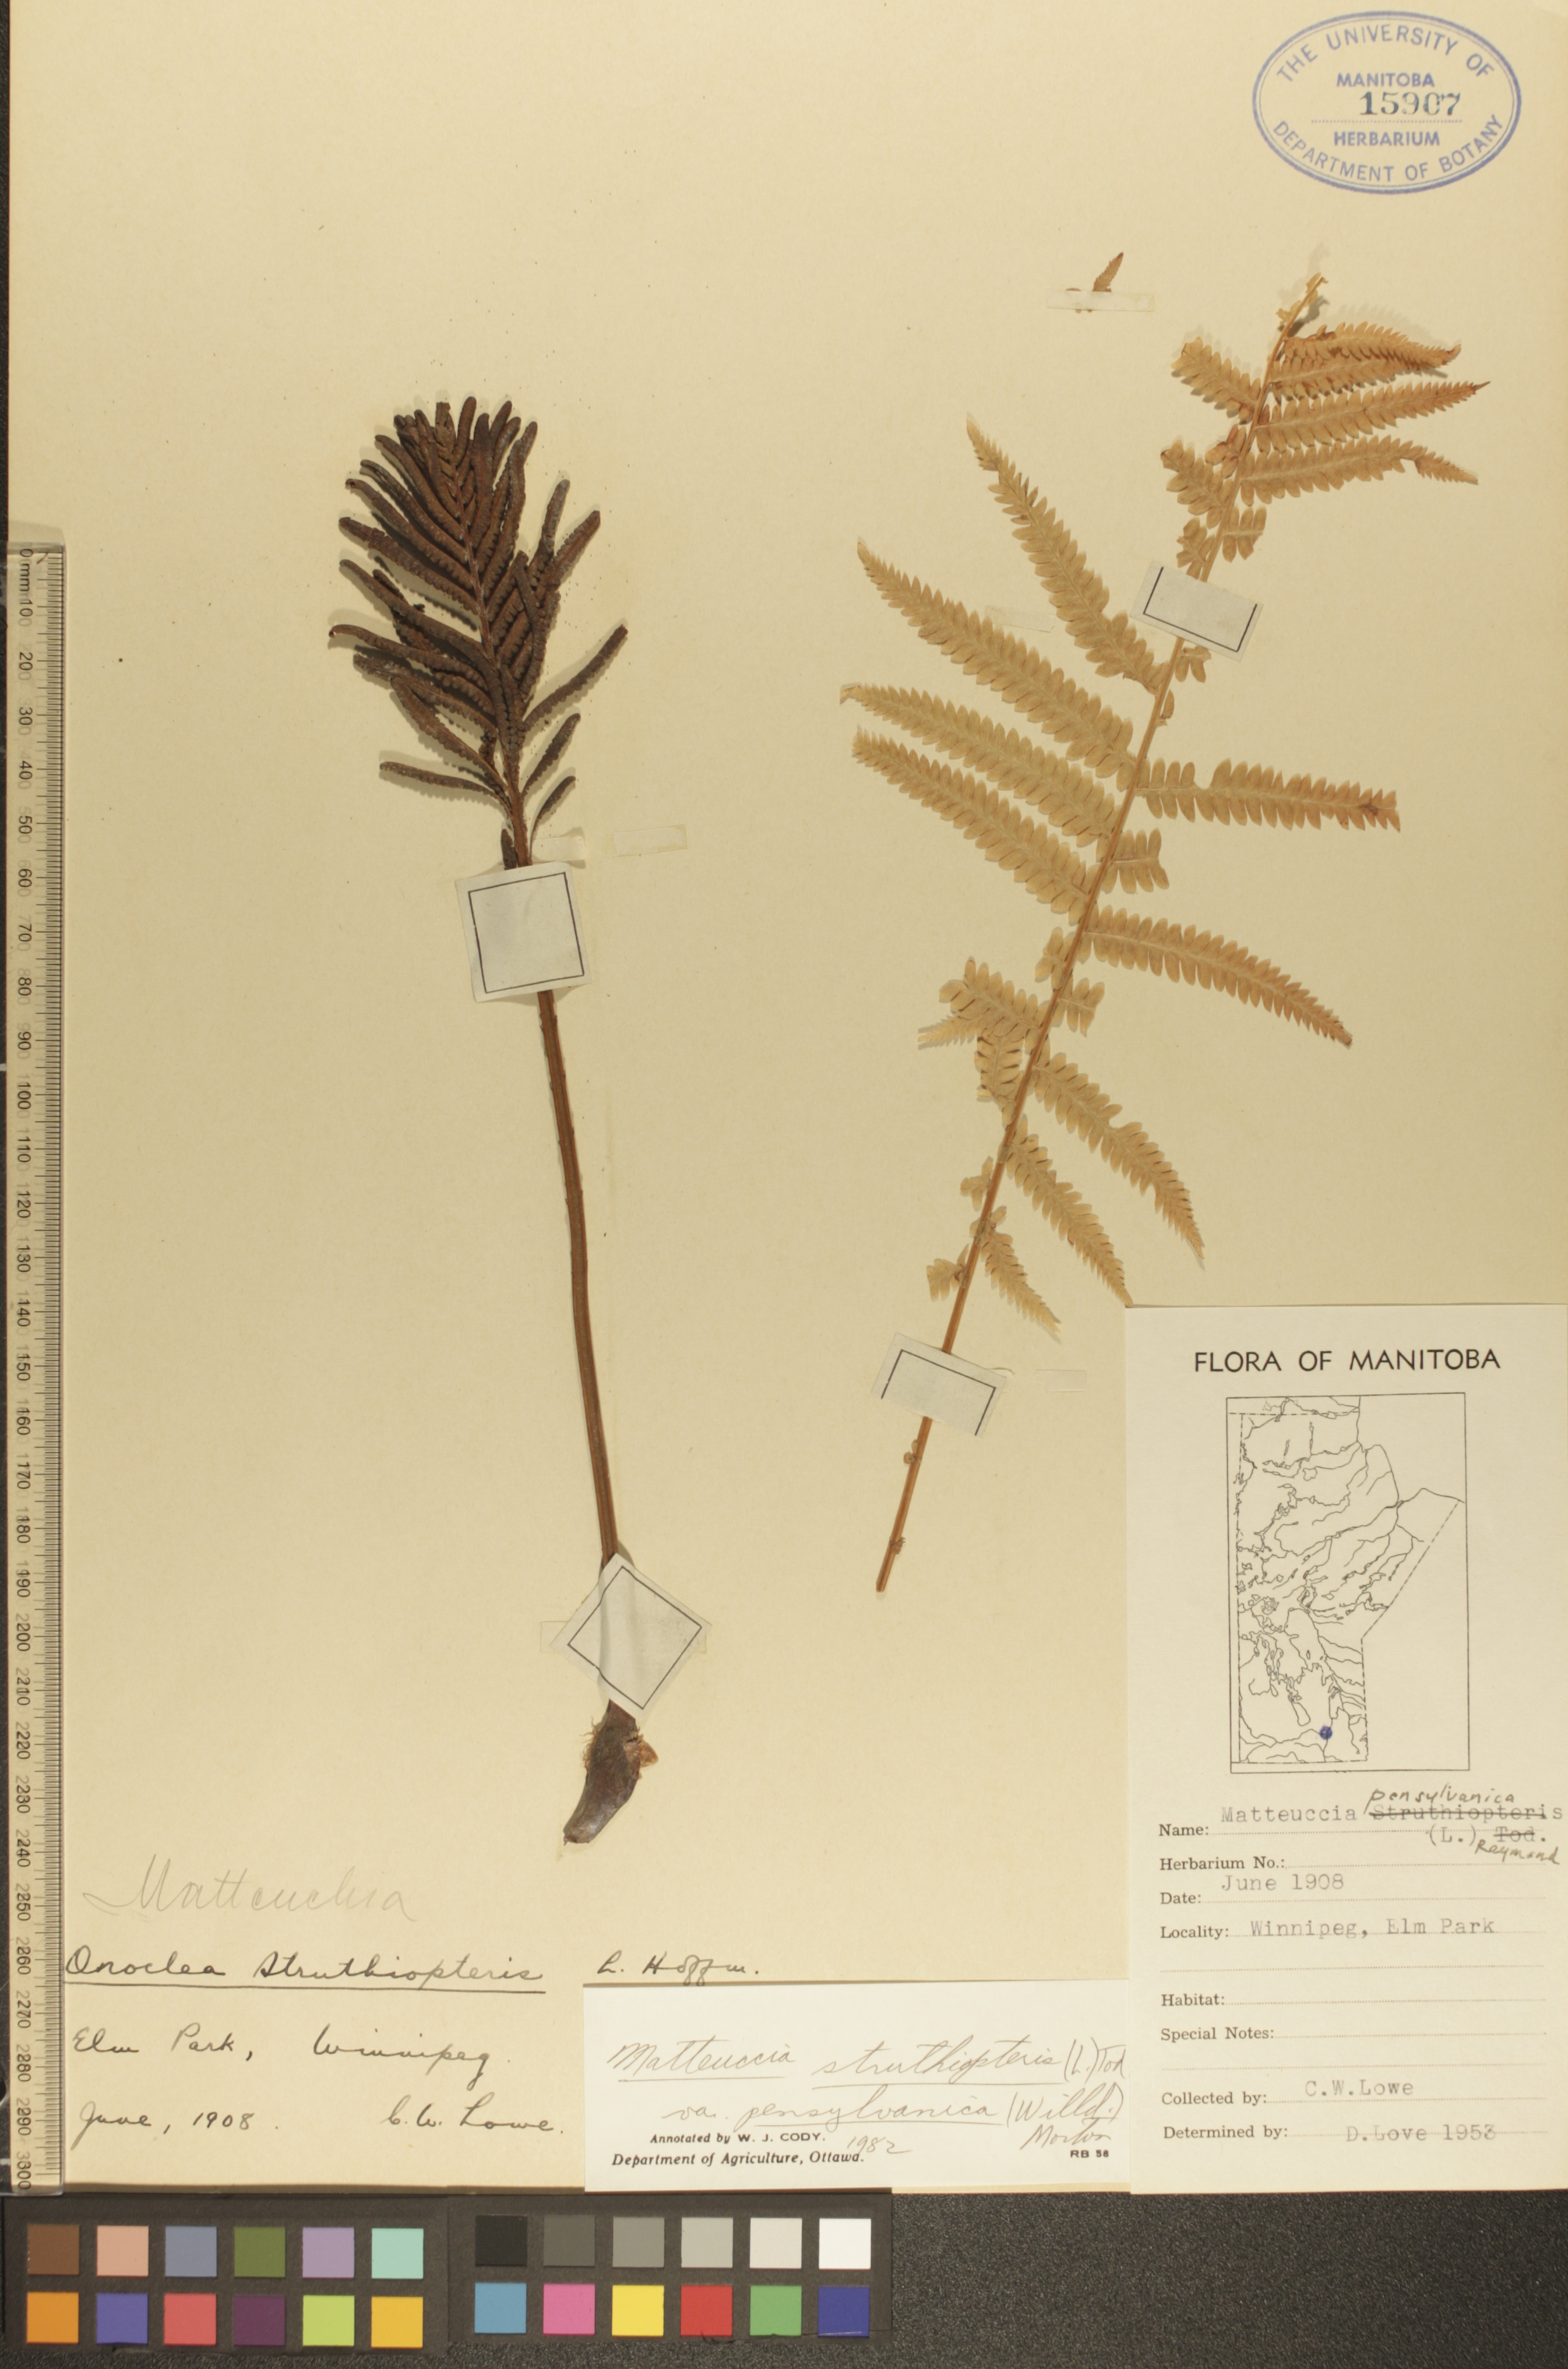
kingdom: Plantae
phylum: Tracheophyta
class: Polypodiopsida
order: Polypodiales
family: Onocleaceae
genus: Matteuccia
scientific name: Matteuccia pensylvanica
